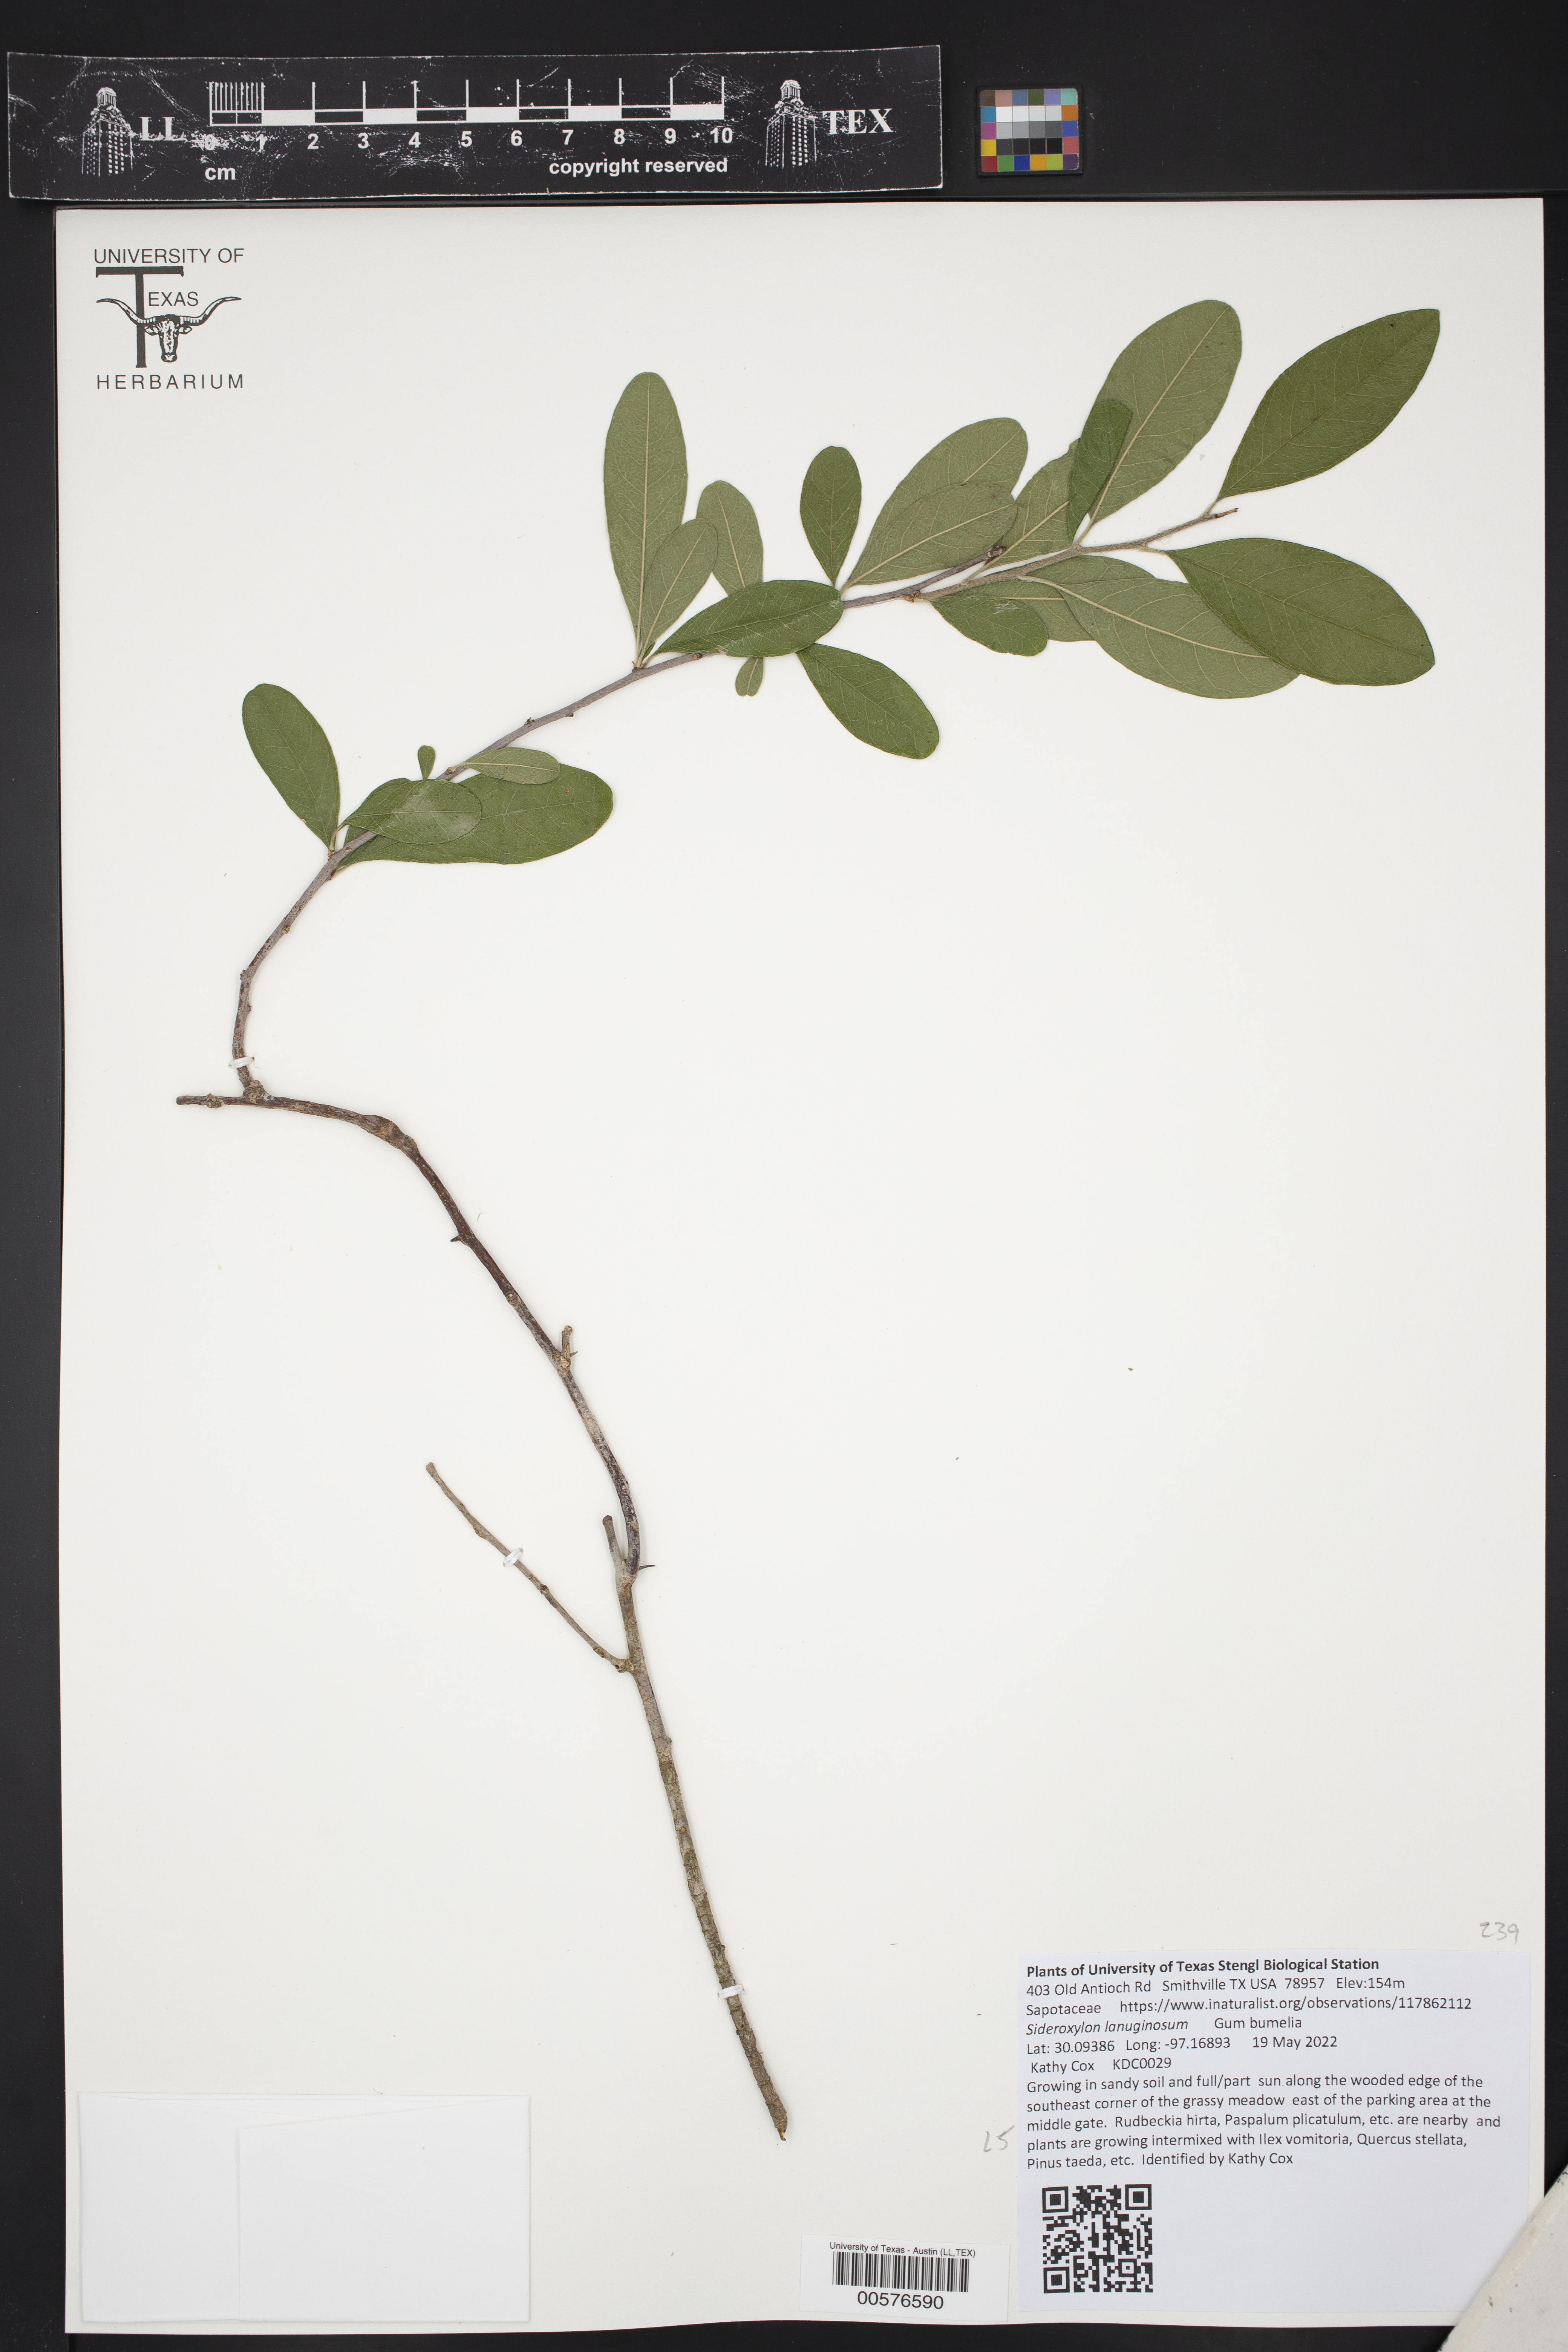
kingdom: Plantae
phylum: Tracheophyta
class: Magnoliopsida
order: Ericales
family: Sapotaceae
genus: Sideroxylon
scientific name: Sideroxylon lanuginosum
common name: Chittamwood
